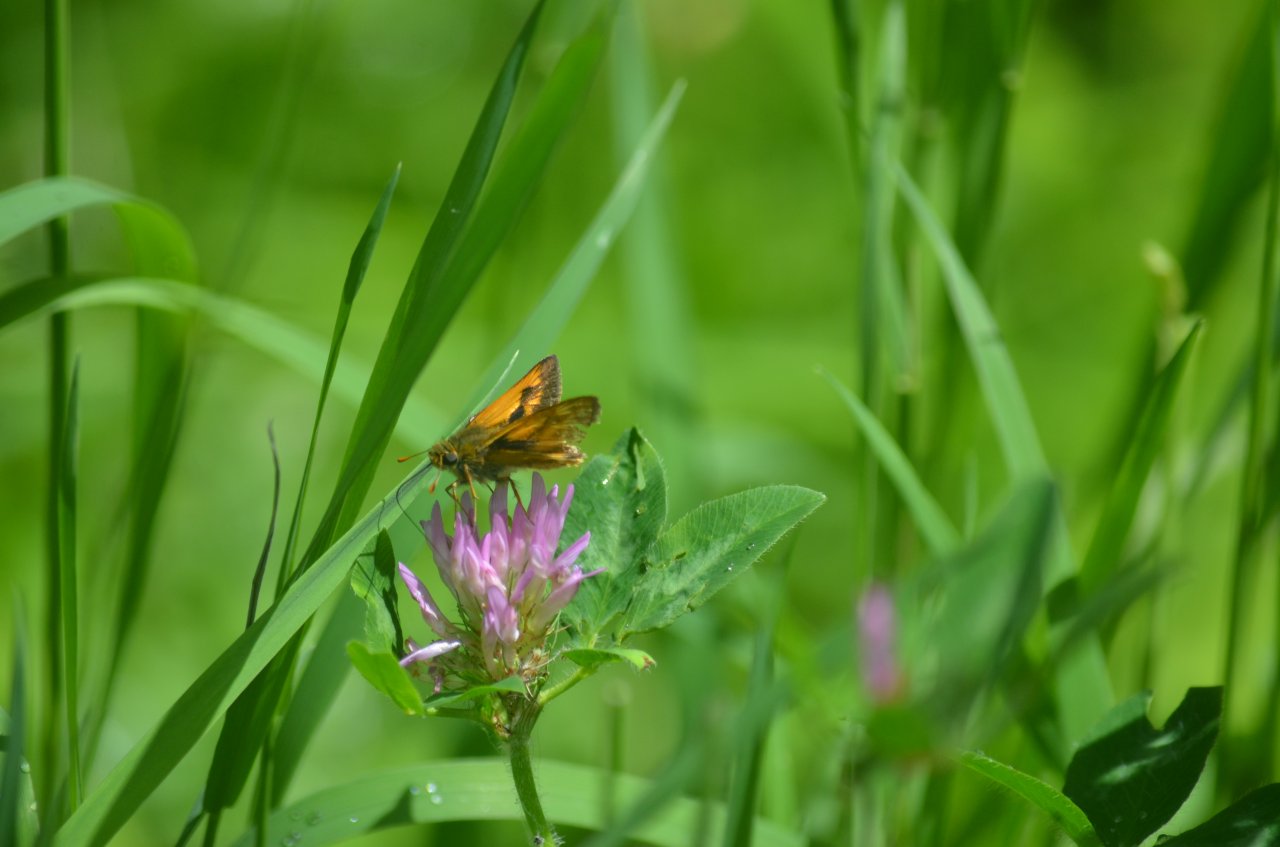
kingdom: Animalia
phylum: Arthropoda
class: Insecta
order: Lepidoptera
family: Hesperiidae
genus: Polites
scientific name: Polites
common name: Long Dash Skipper
